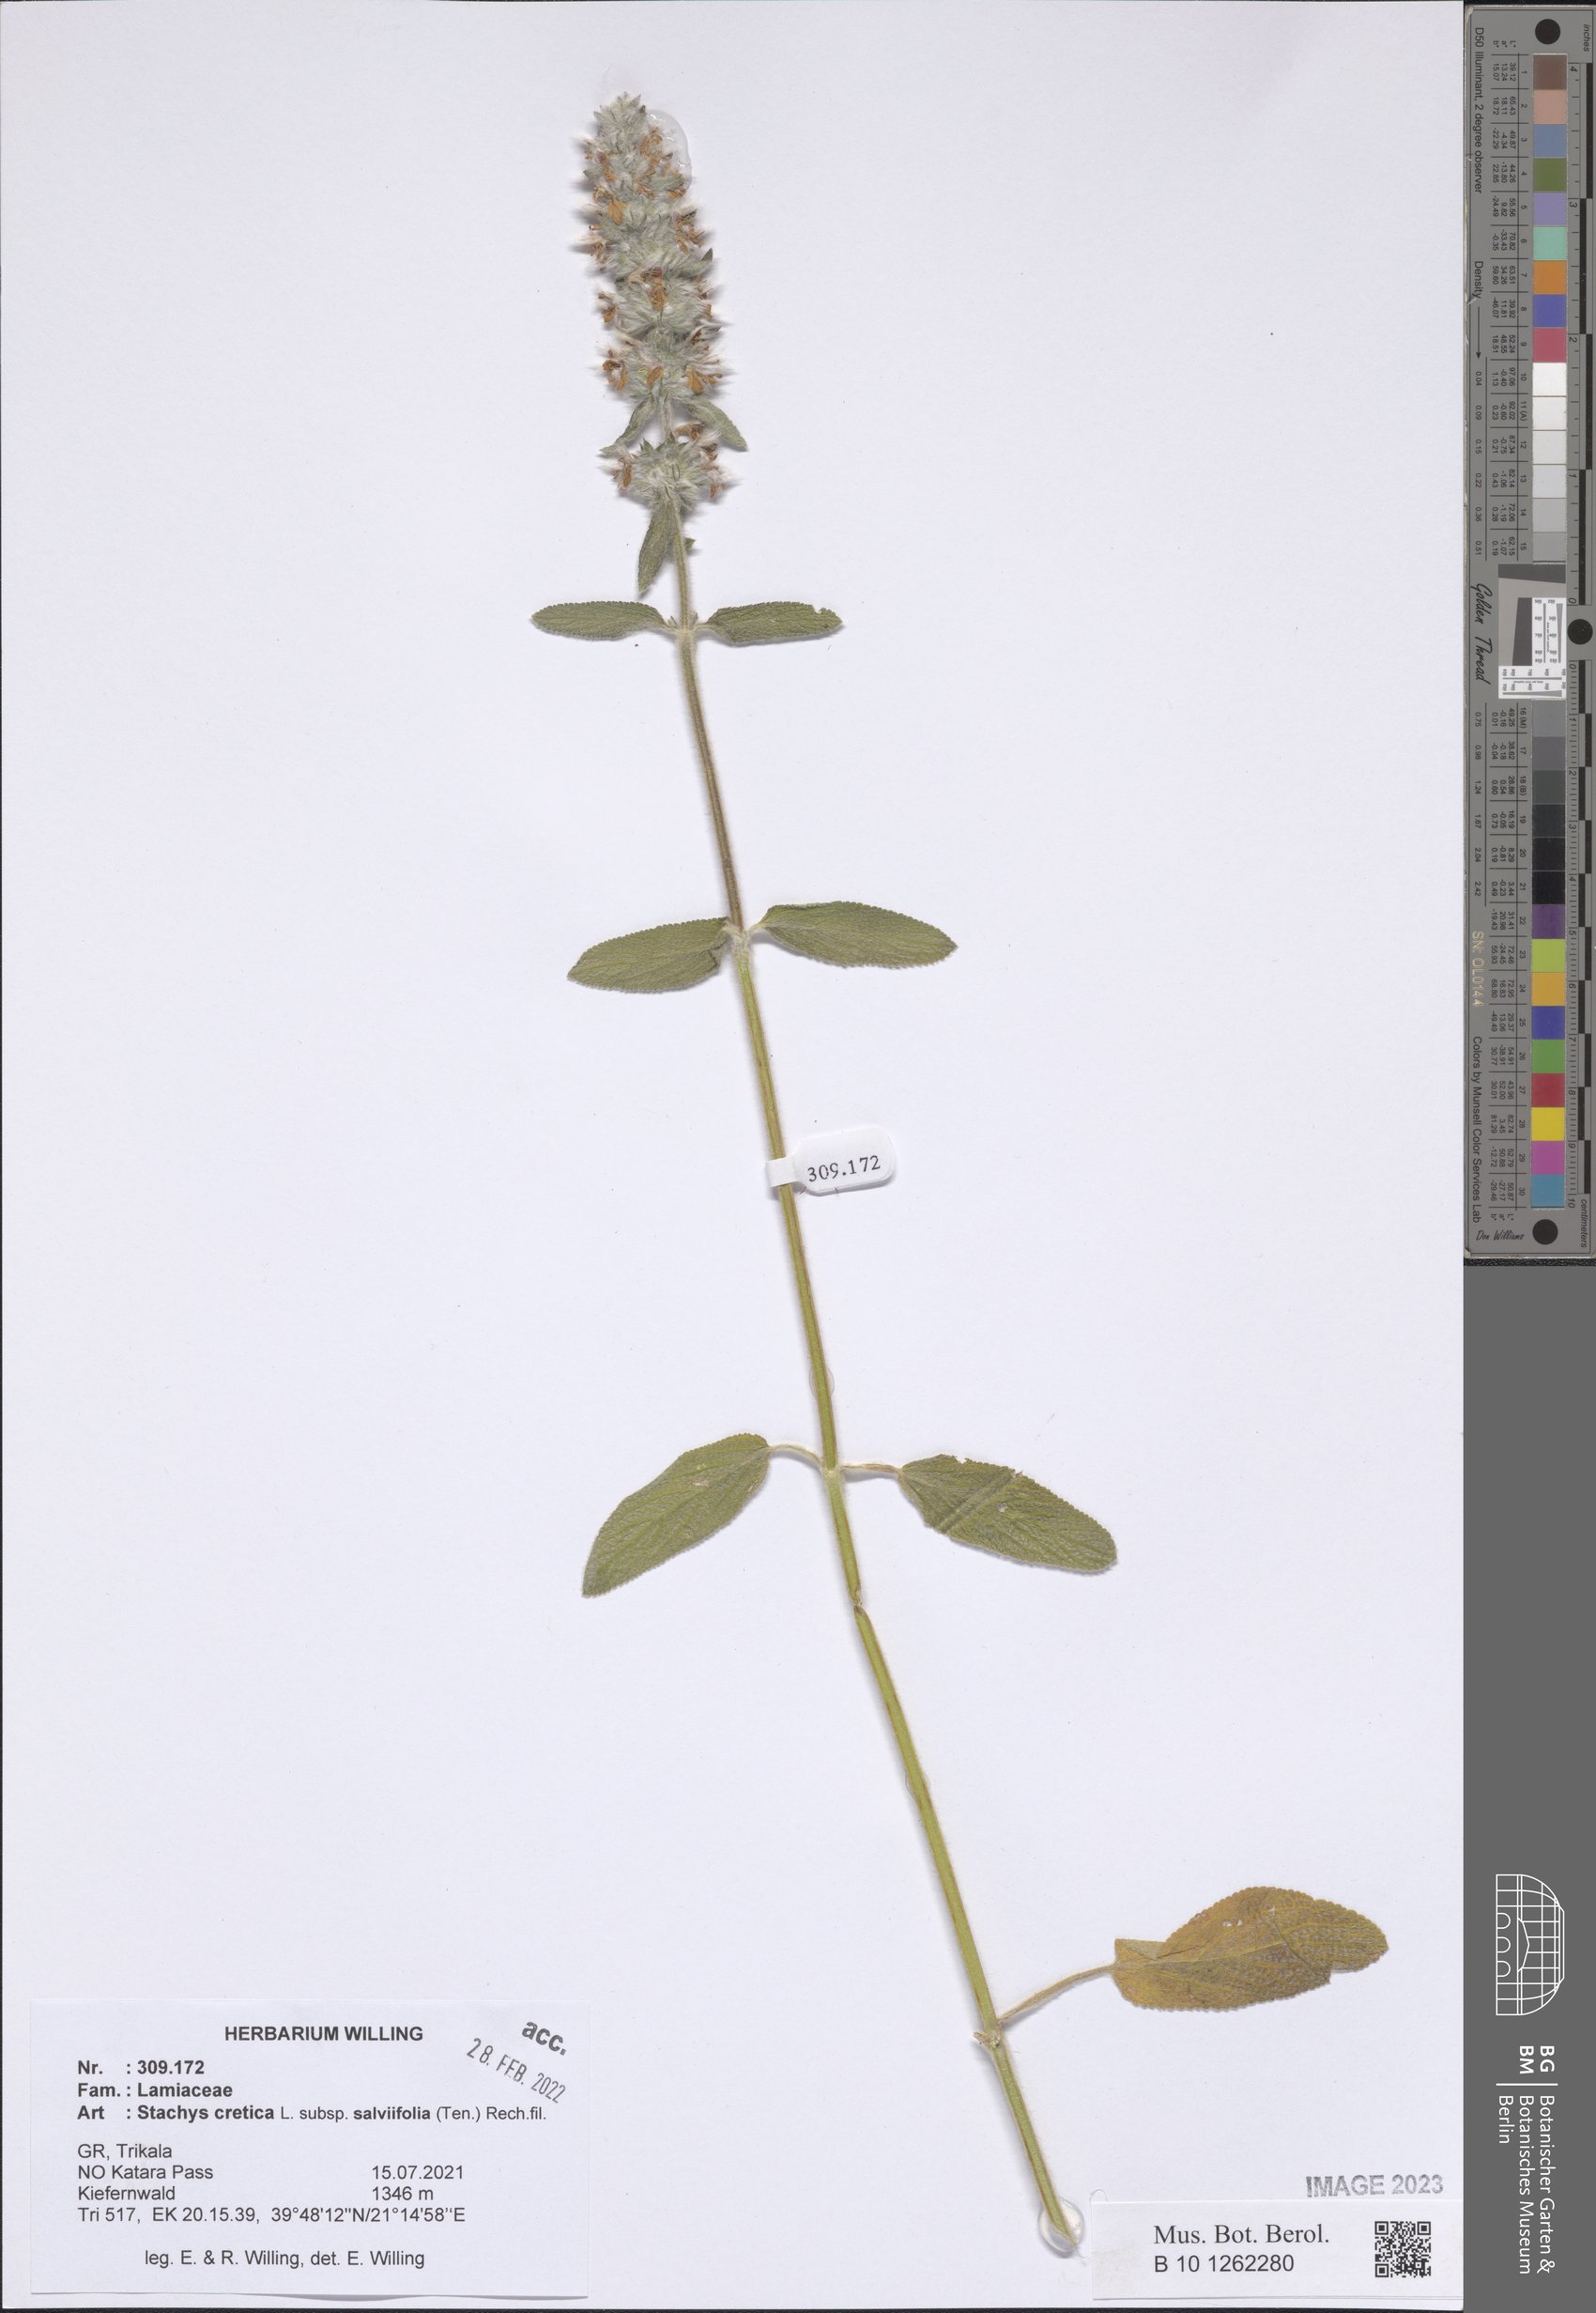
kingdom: Plantae
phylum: Tracheophyta
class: Magnoliopsida
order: Lamiales
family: Lamiaceae
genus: Stachys
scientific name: Stachys cretica
